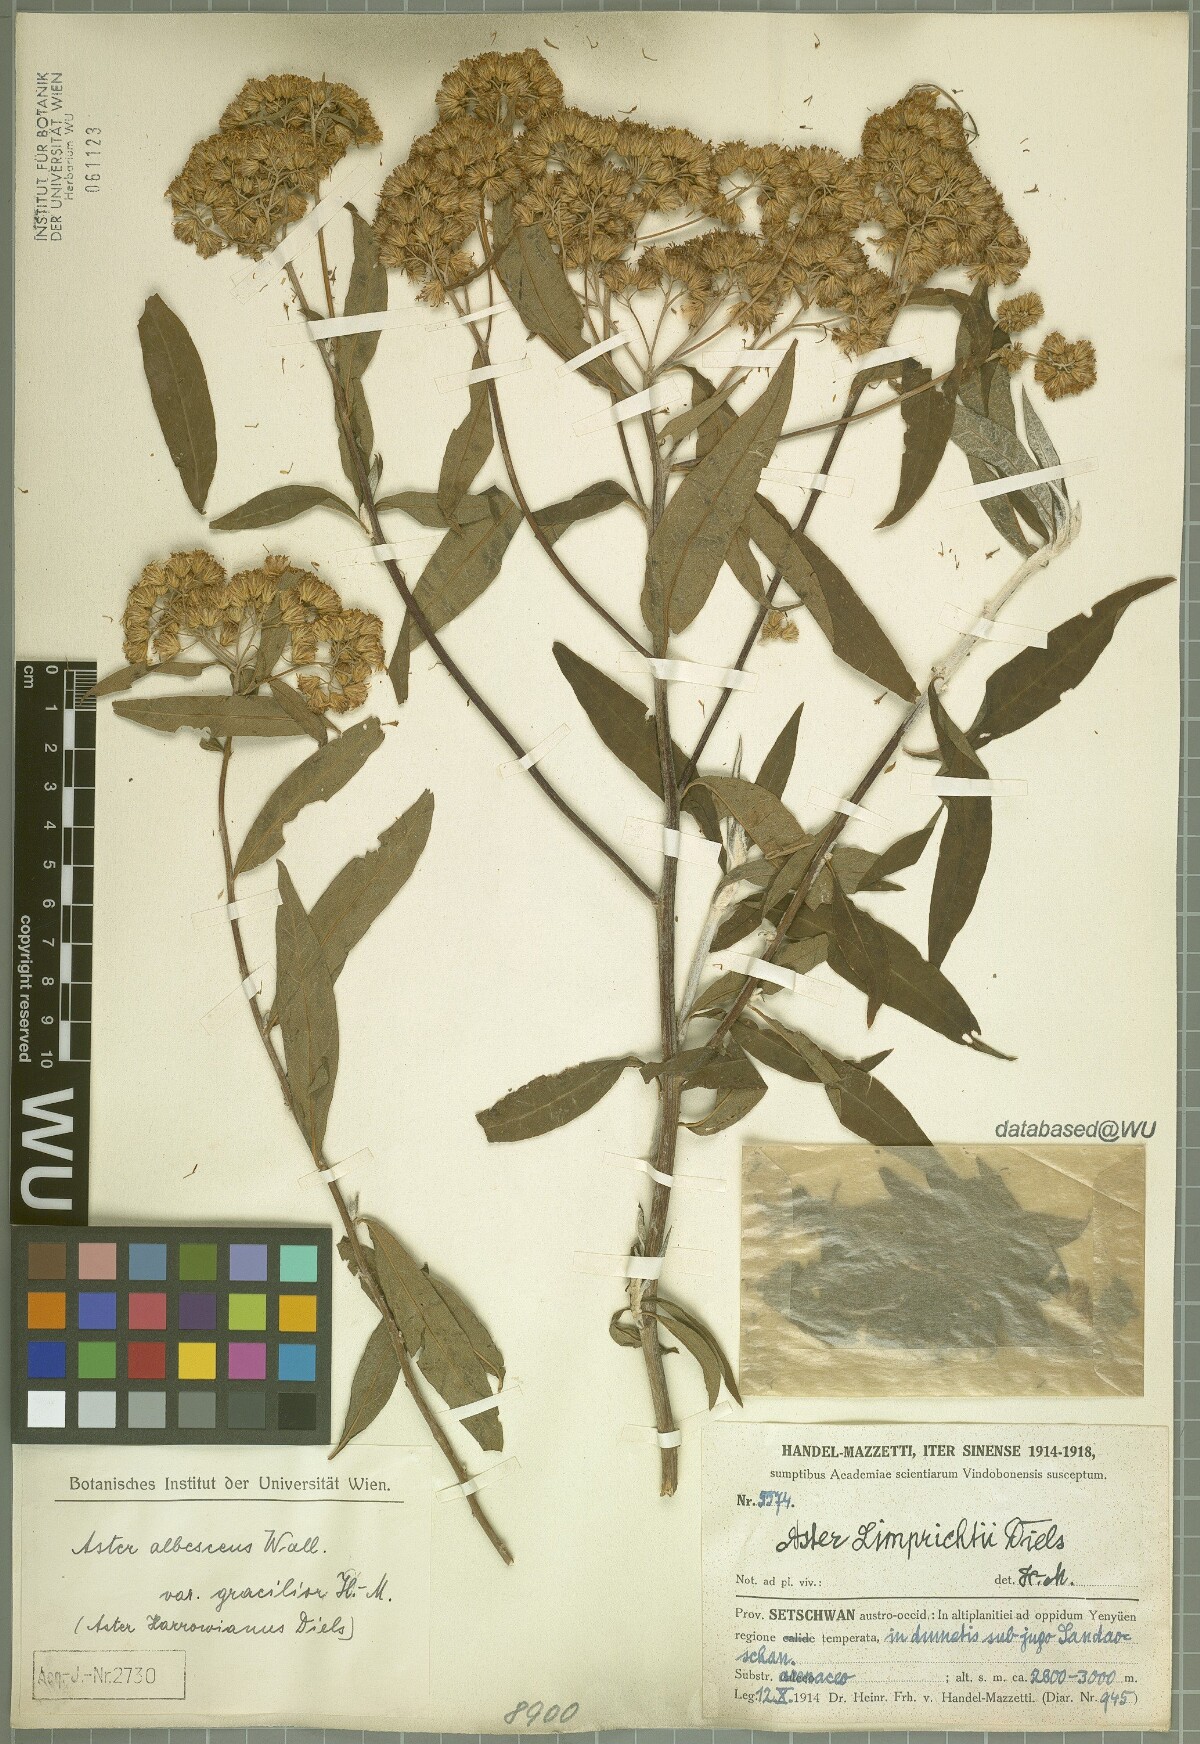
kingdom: Plantae
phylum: Tracheophyta
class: Magnoliopsida
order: Asterales
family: Asteraceae
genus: Sinosidus
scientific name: Sinosidus albescens
